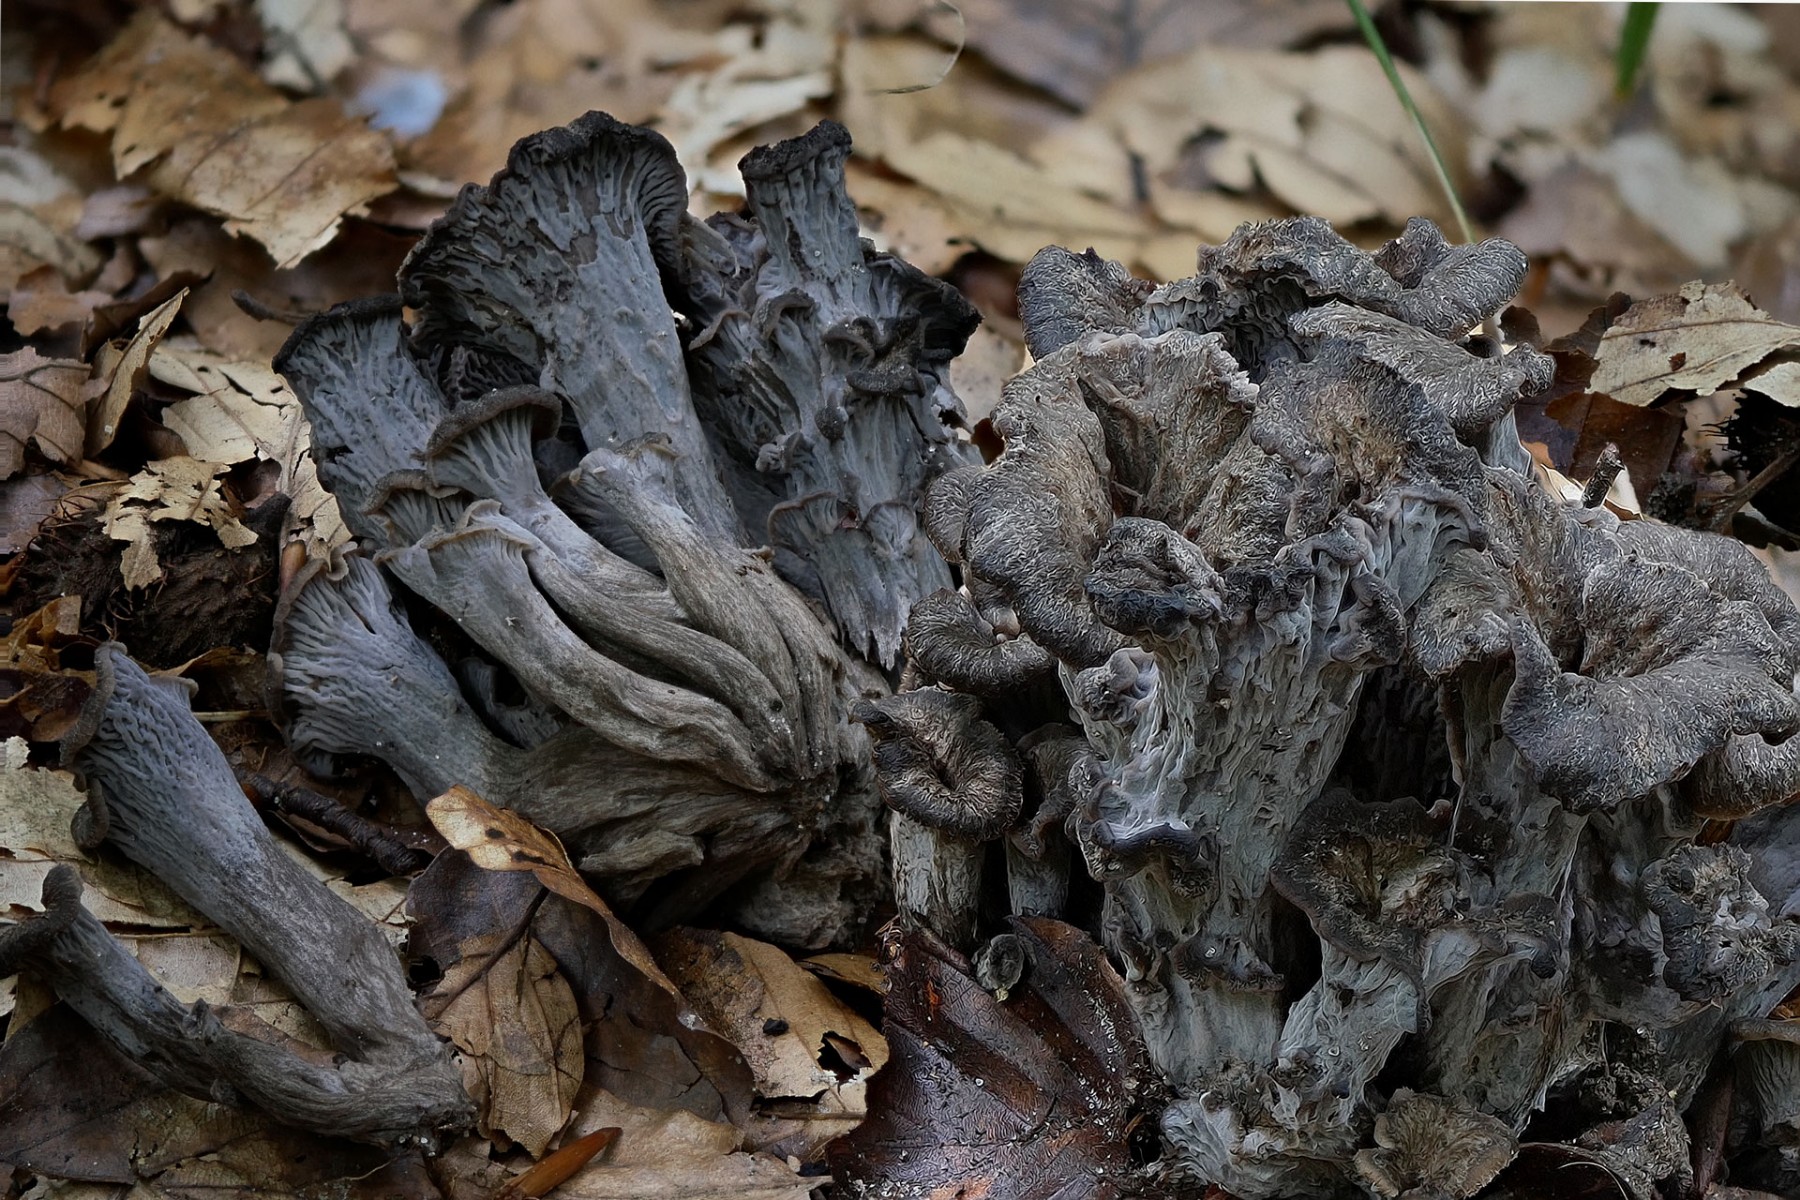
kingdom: Fungi
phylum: Basidiomycota
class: Agaricomycetes
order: Cantharellales
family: Hydnaceae
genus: Cantharellus
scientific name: Cantharellus cinereus
